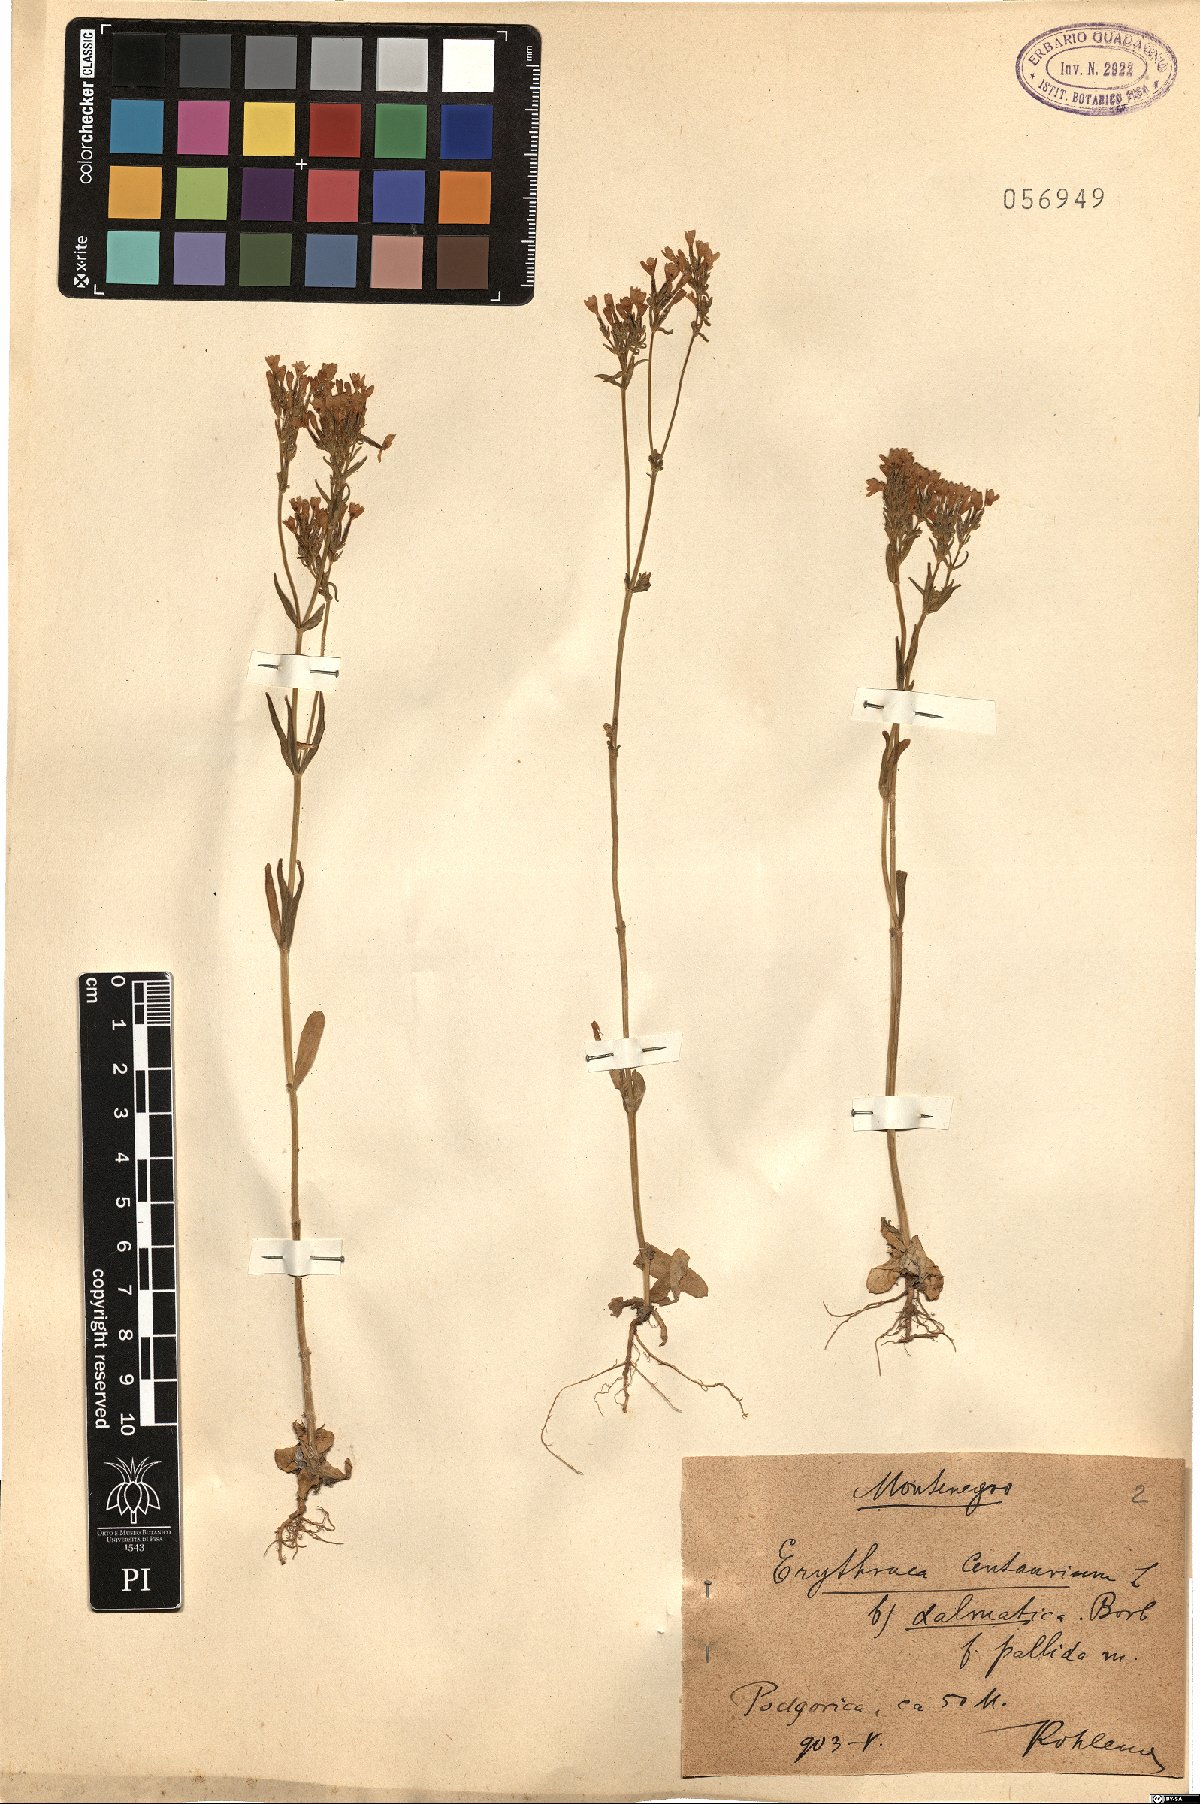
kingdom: Plantae
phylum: Tracheophyta
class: Magnoliopsida
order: Gentianales
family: Gentianaceae
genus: Centaurium
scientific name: Centaurium erythraea
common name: Common centaury
